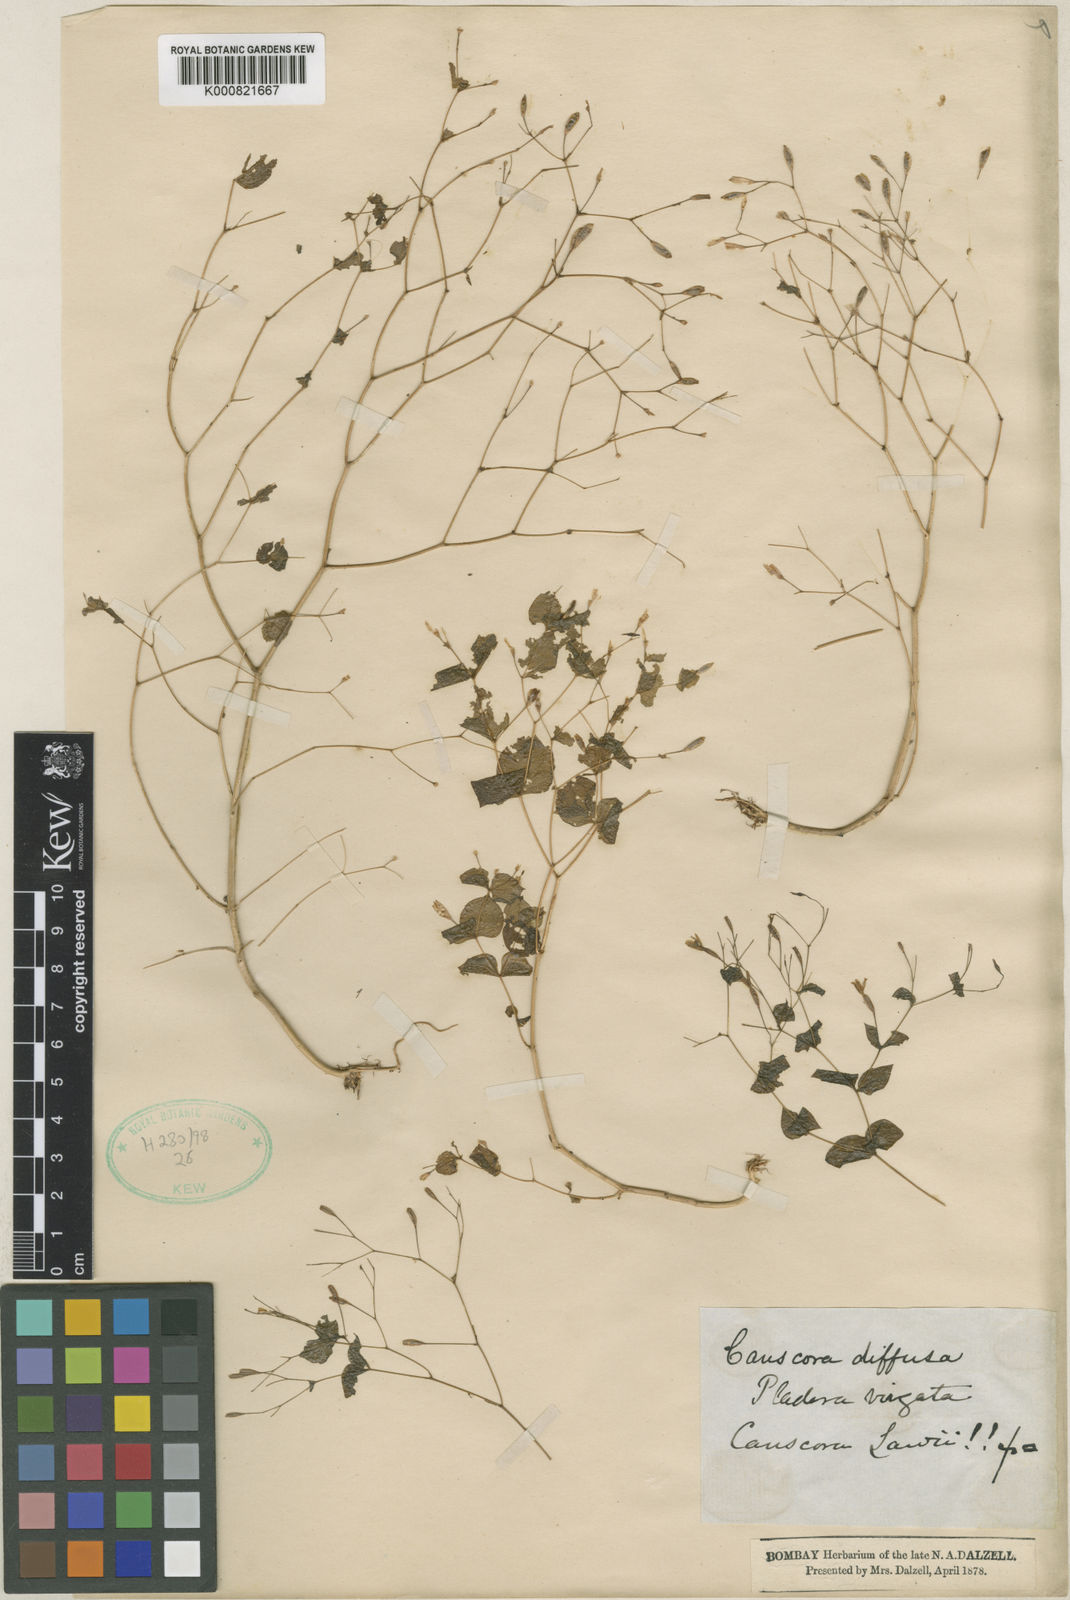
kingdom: Plantae
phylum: Tracheophyta
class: Magnoliopsida
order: Gentianales
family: Gentianaceae
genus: Canscora
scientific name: Canscora diffusa
